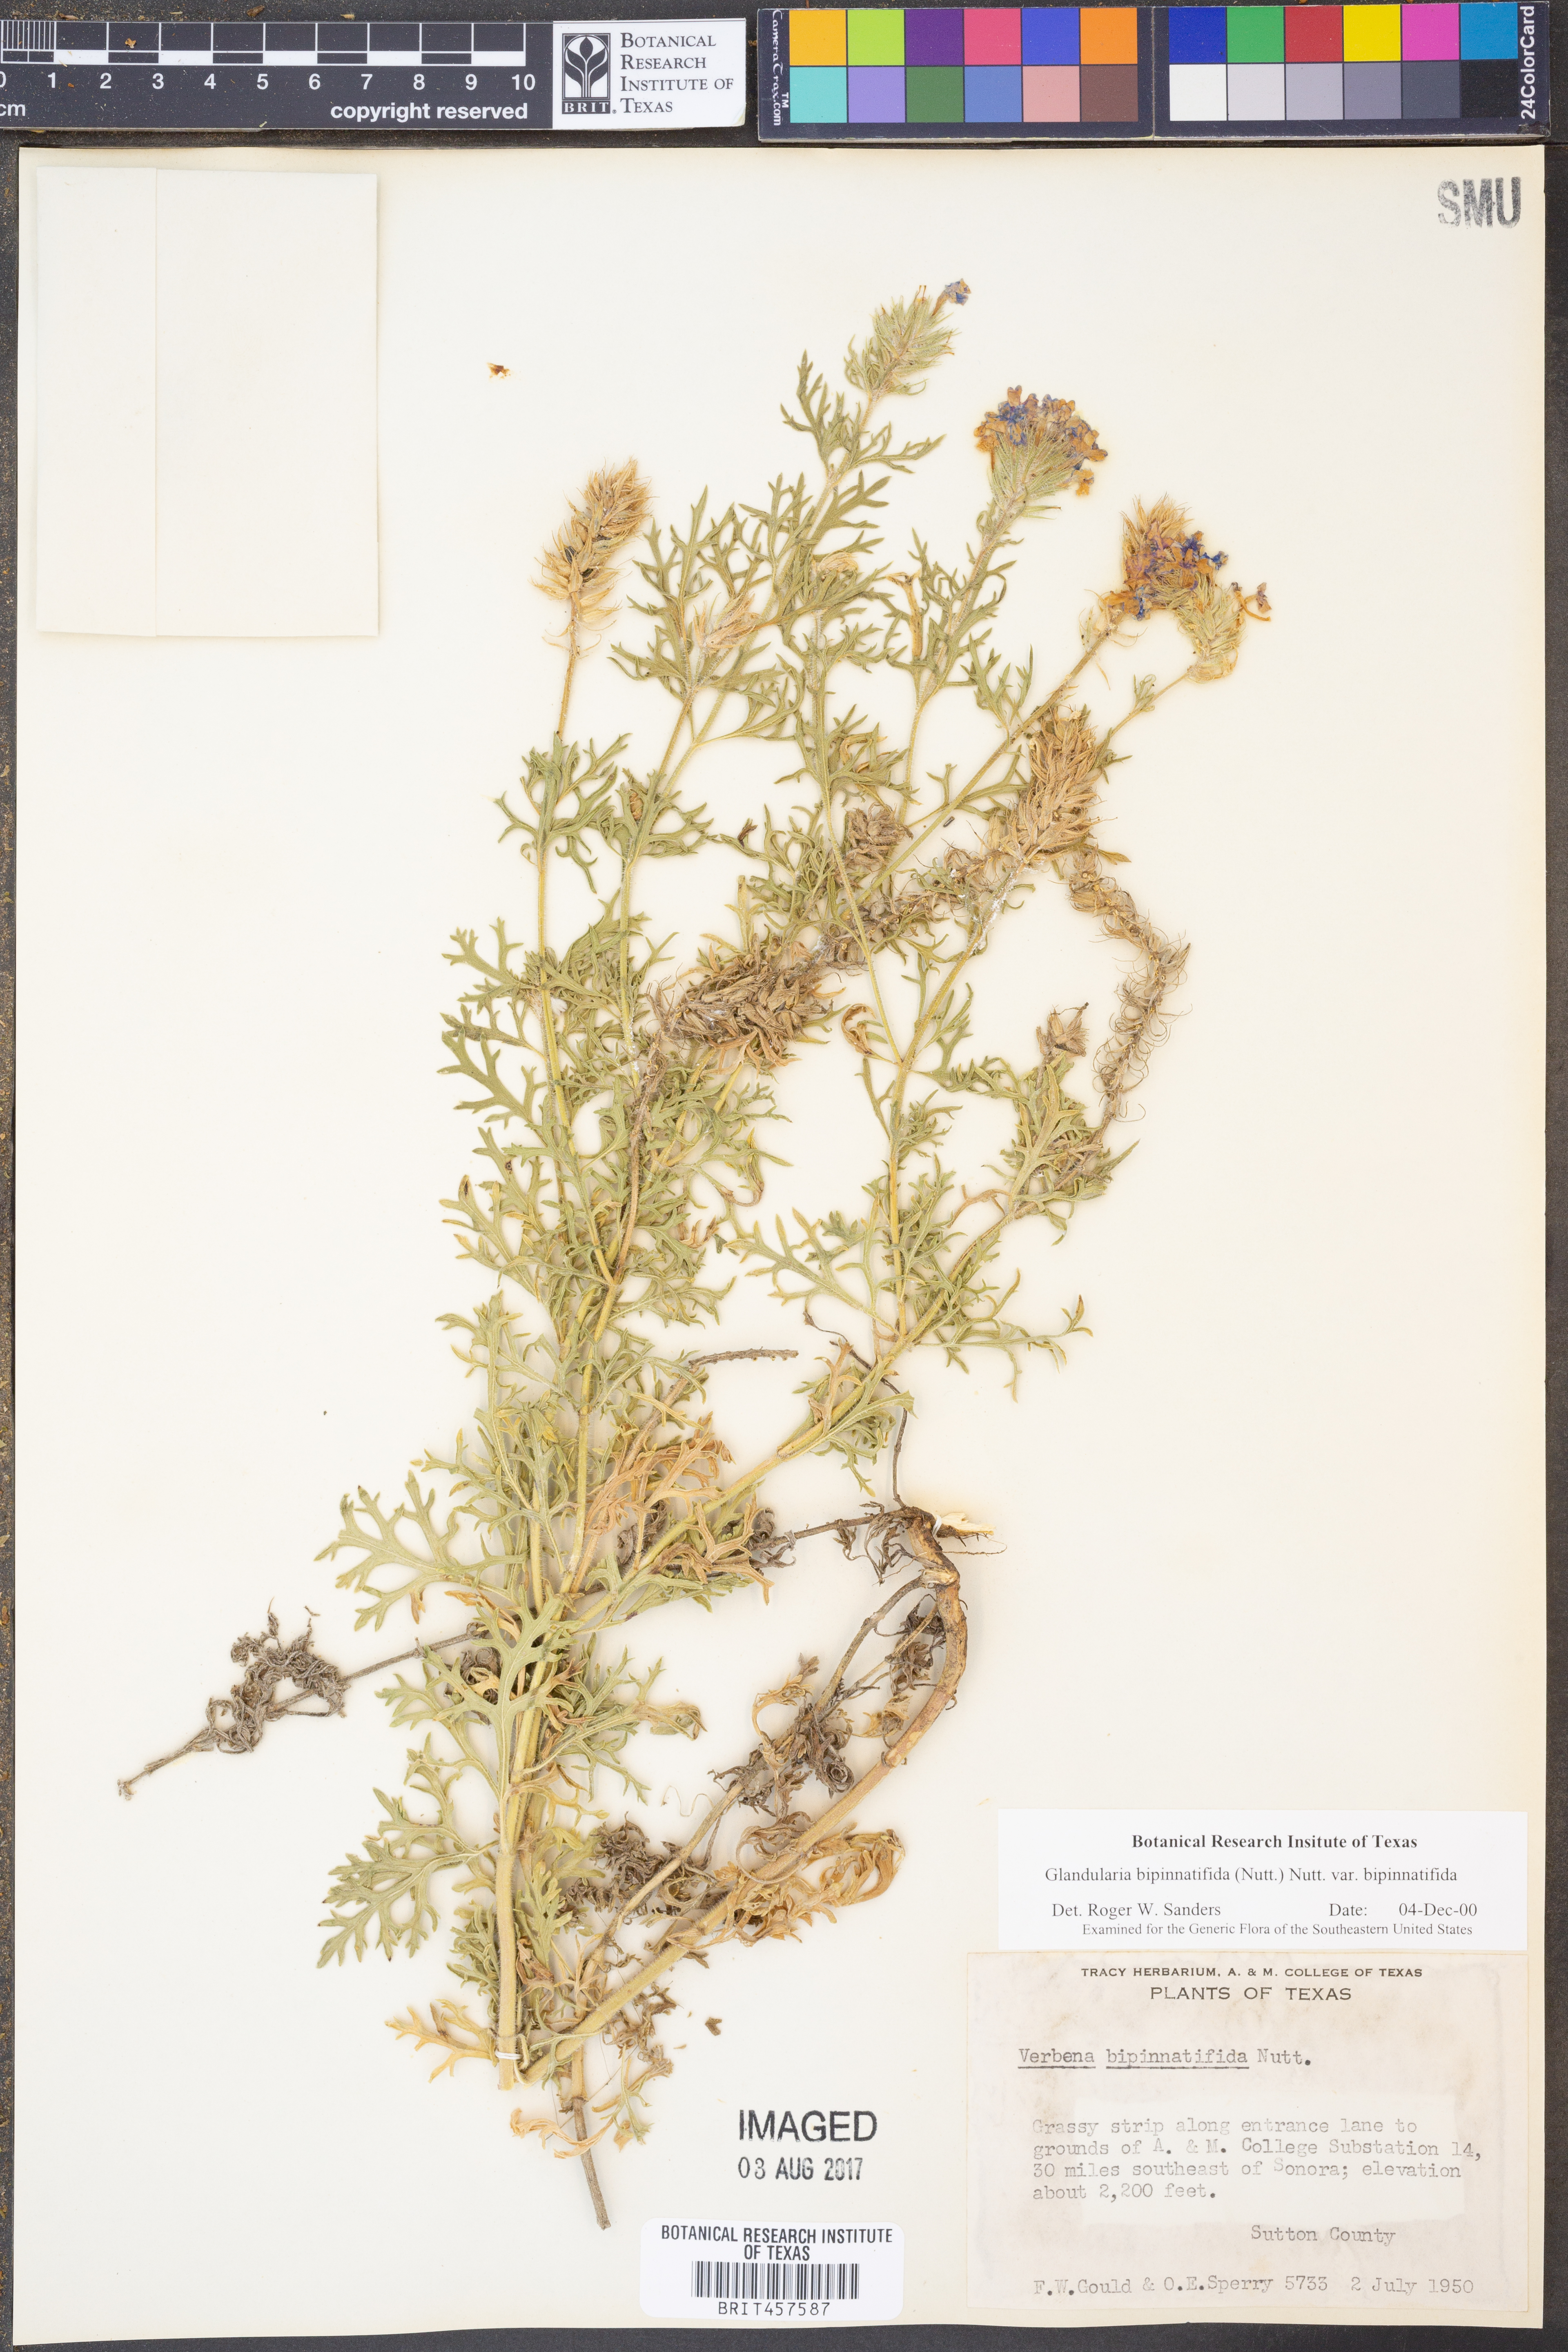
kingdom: Plantae
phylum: Tracheophyta
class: Magnoliopsida
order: Lamiales
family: Verbenaceae
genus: Verbena
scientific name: Verbena bipinnatifida
